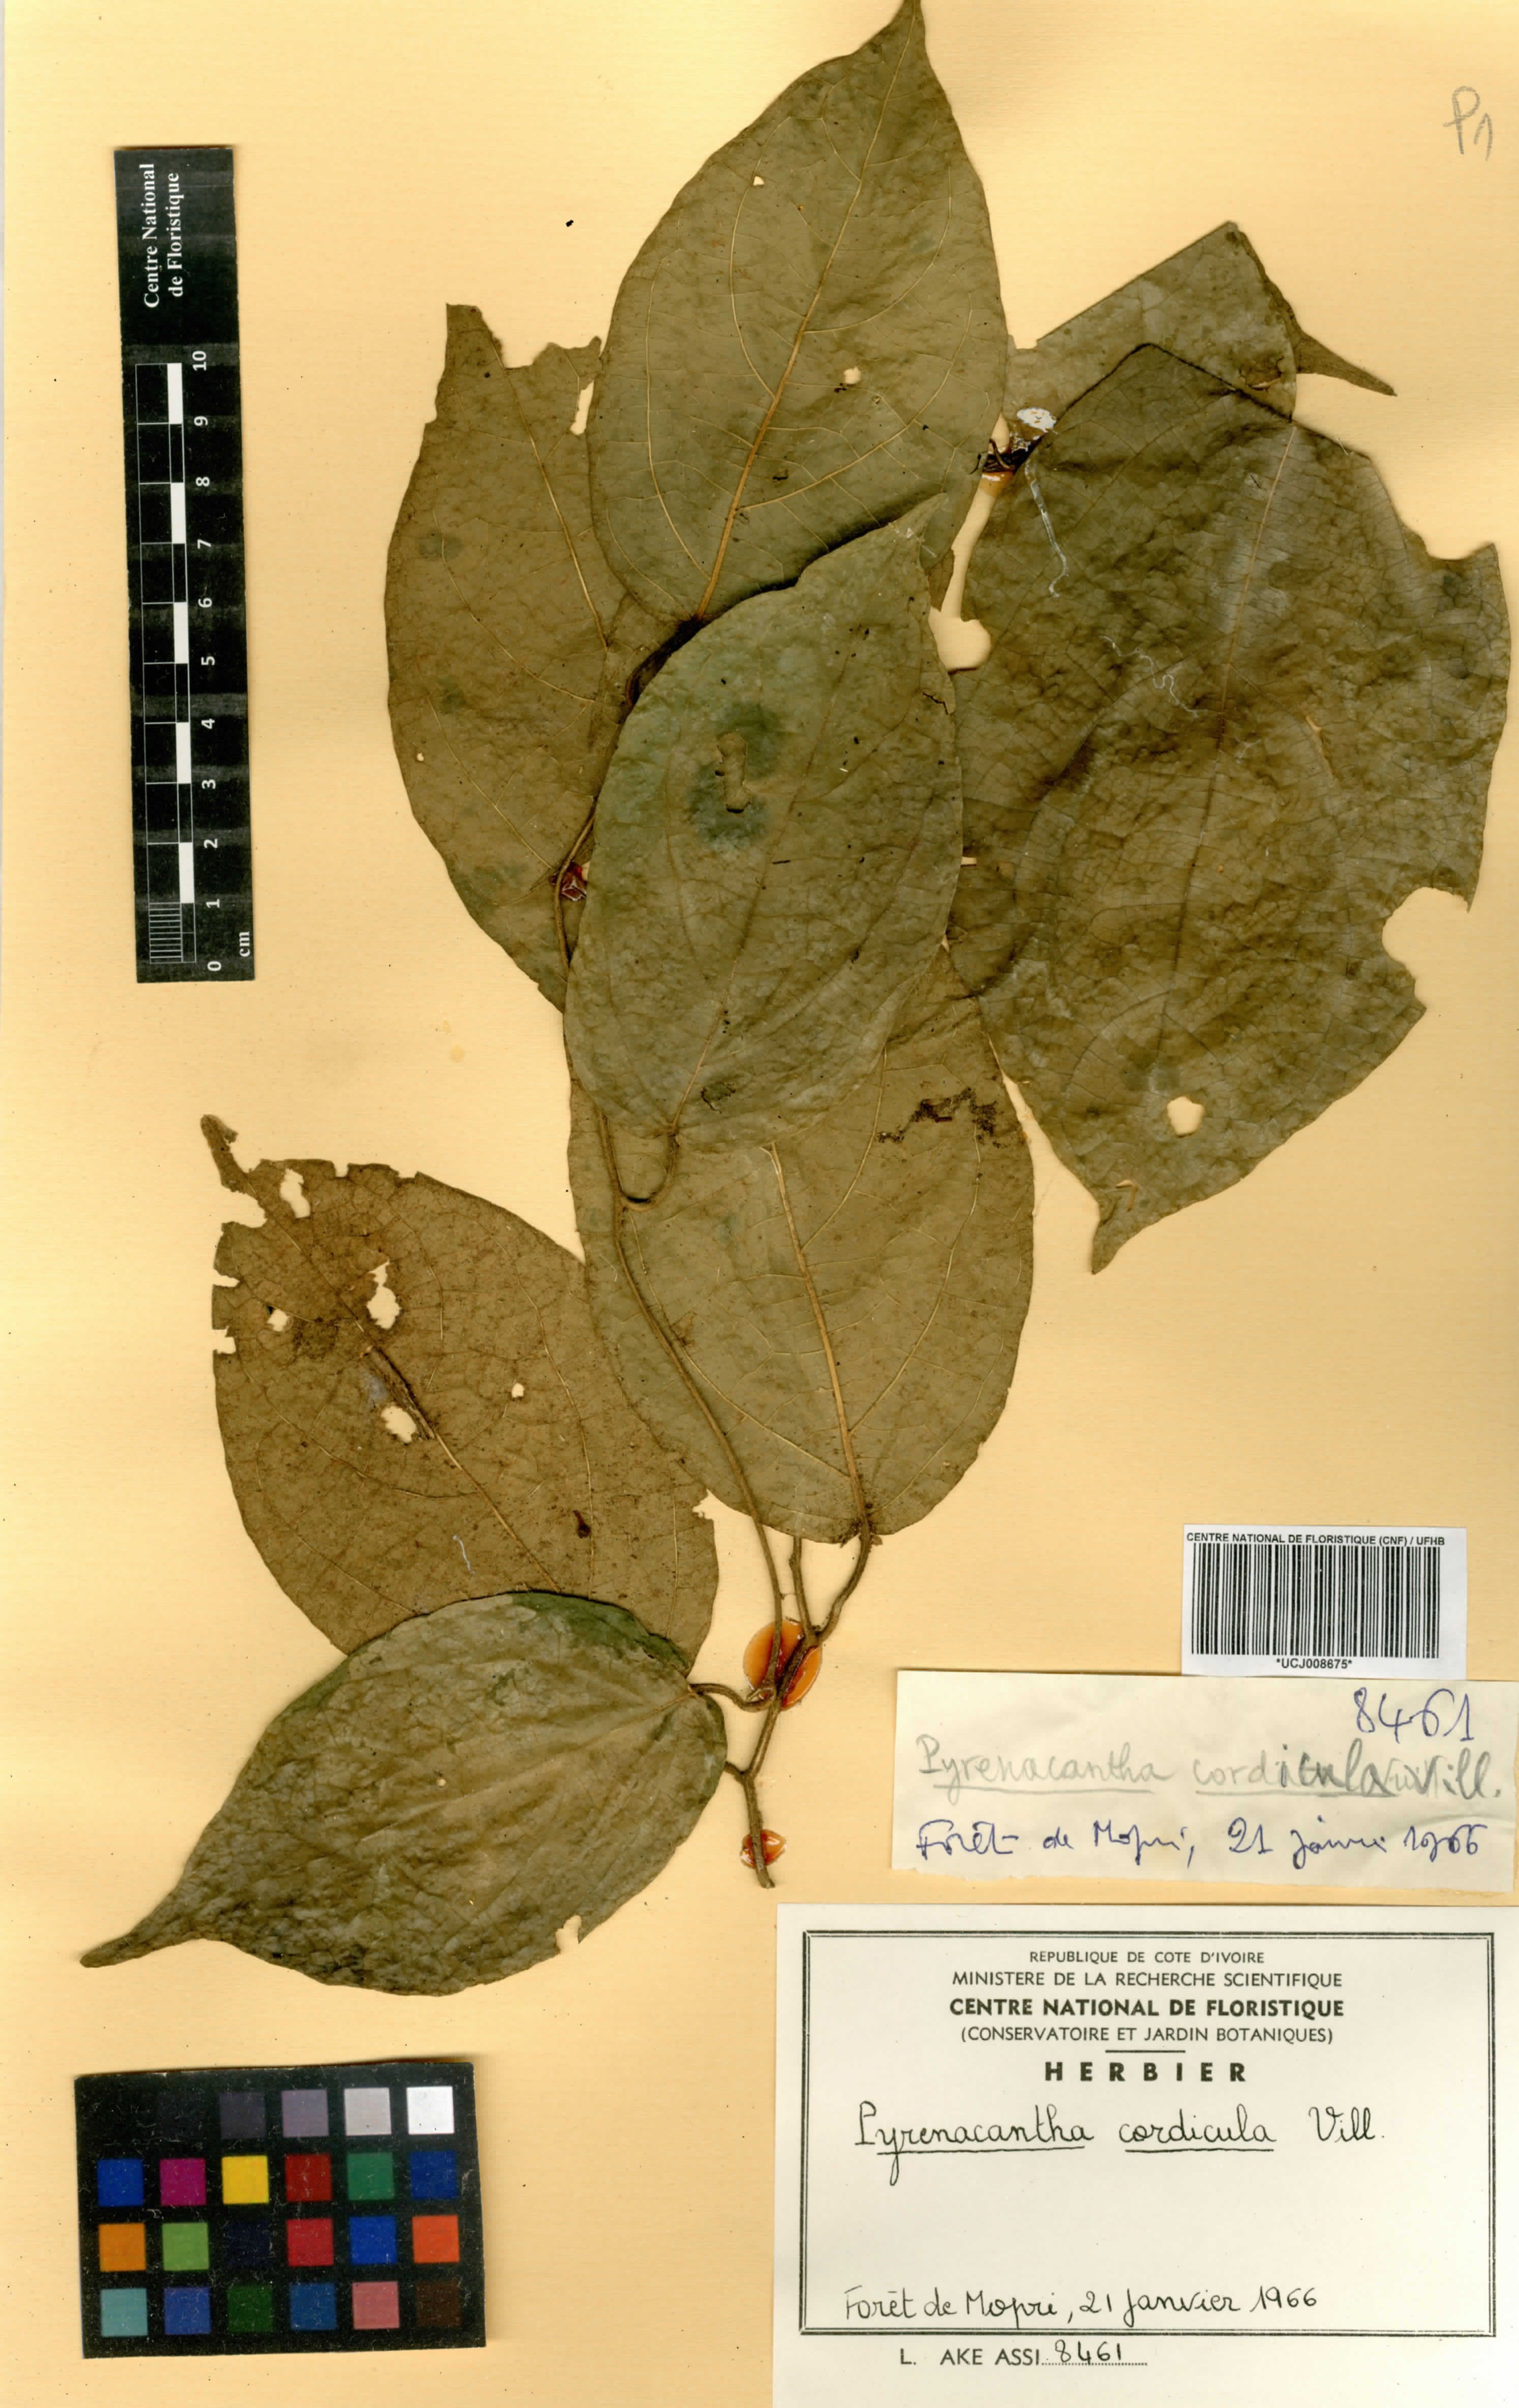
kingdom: Plantae
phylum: Tracheophyta
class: Magnoliopsida
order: Icacinales
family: Icacinaceae
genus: Pyrenacantha
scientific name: Pyrenacantha villiersii
